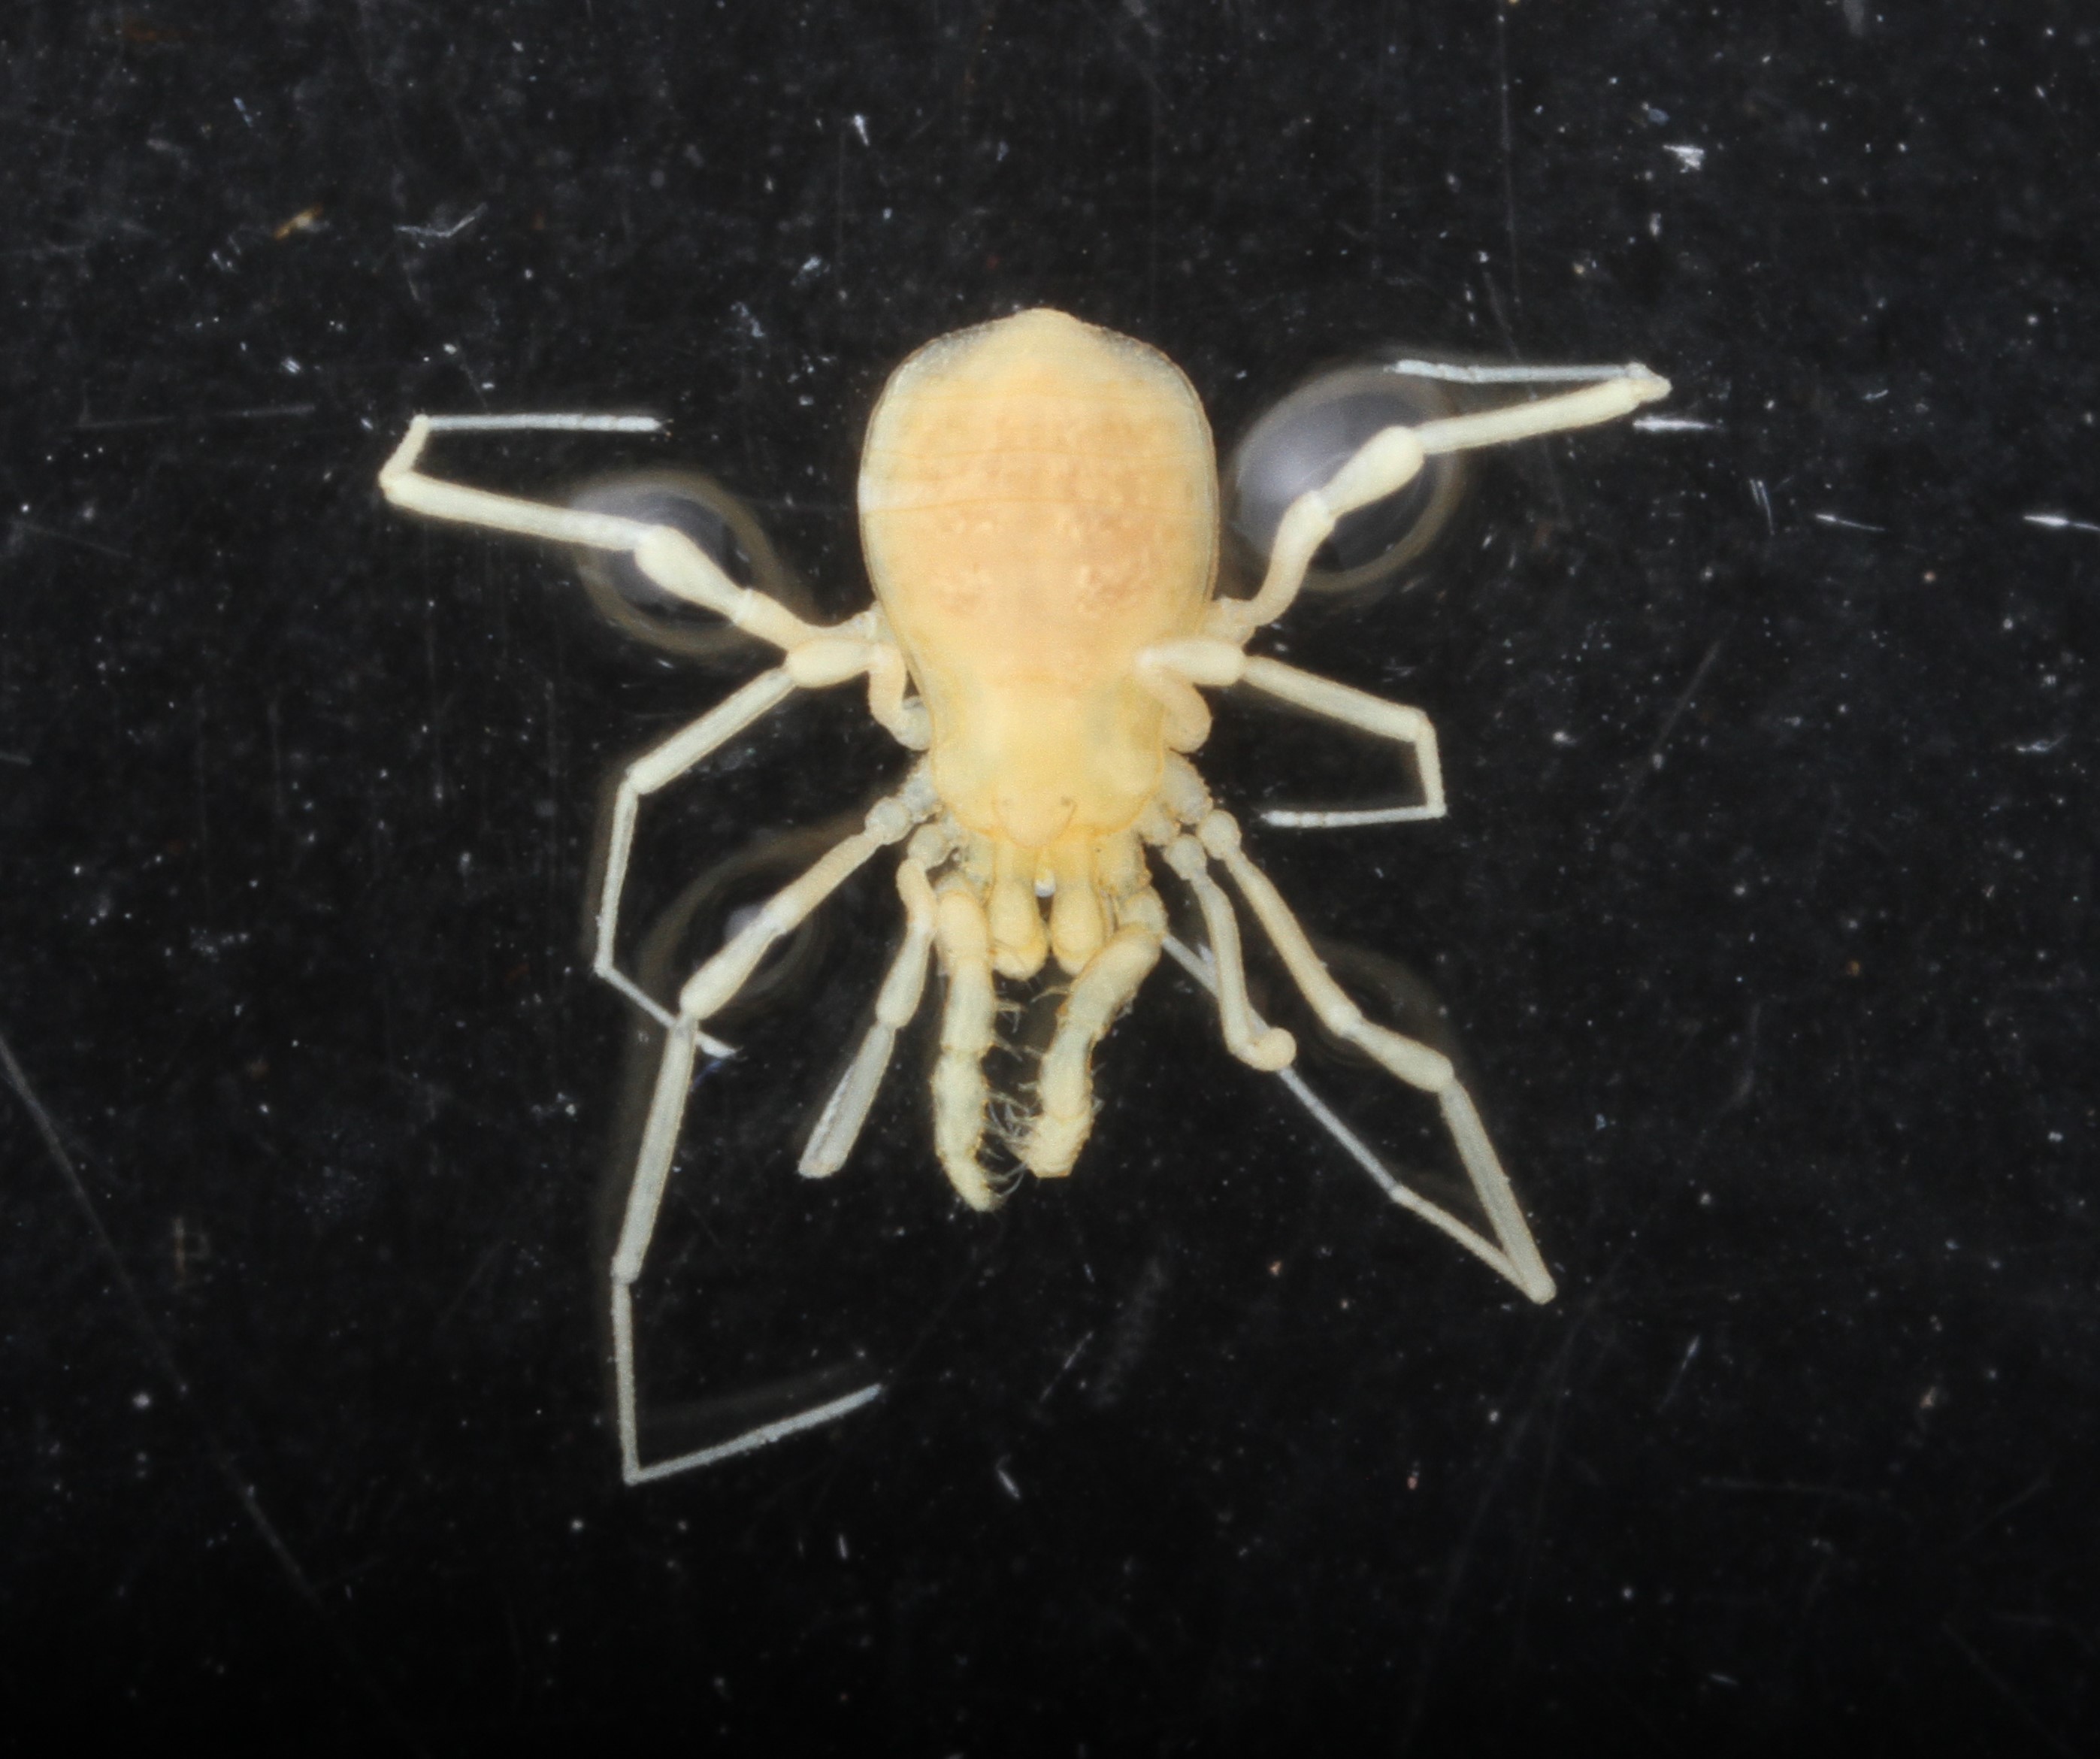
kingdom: Animalia
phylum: Arthropoda
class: Arachnida
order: Opiliones
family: Phalangodidae
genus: Texella
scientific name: Texella reyesi
